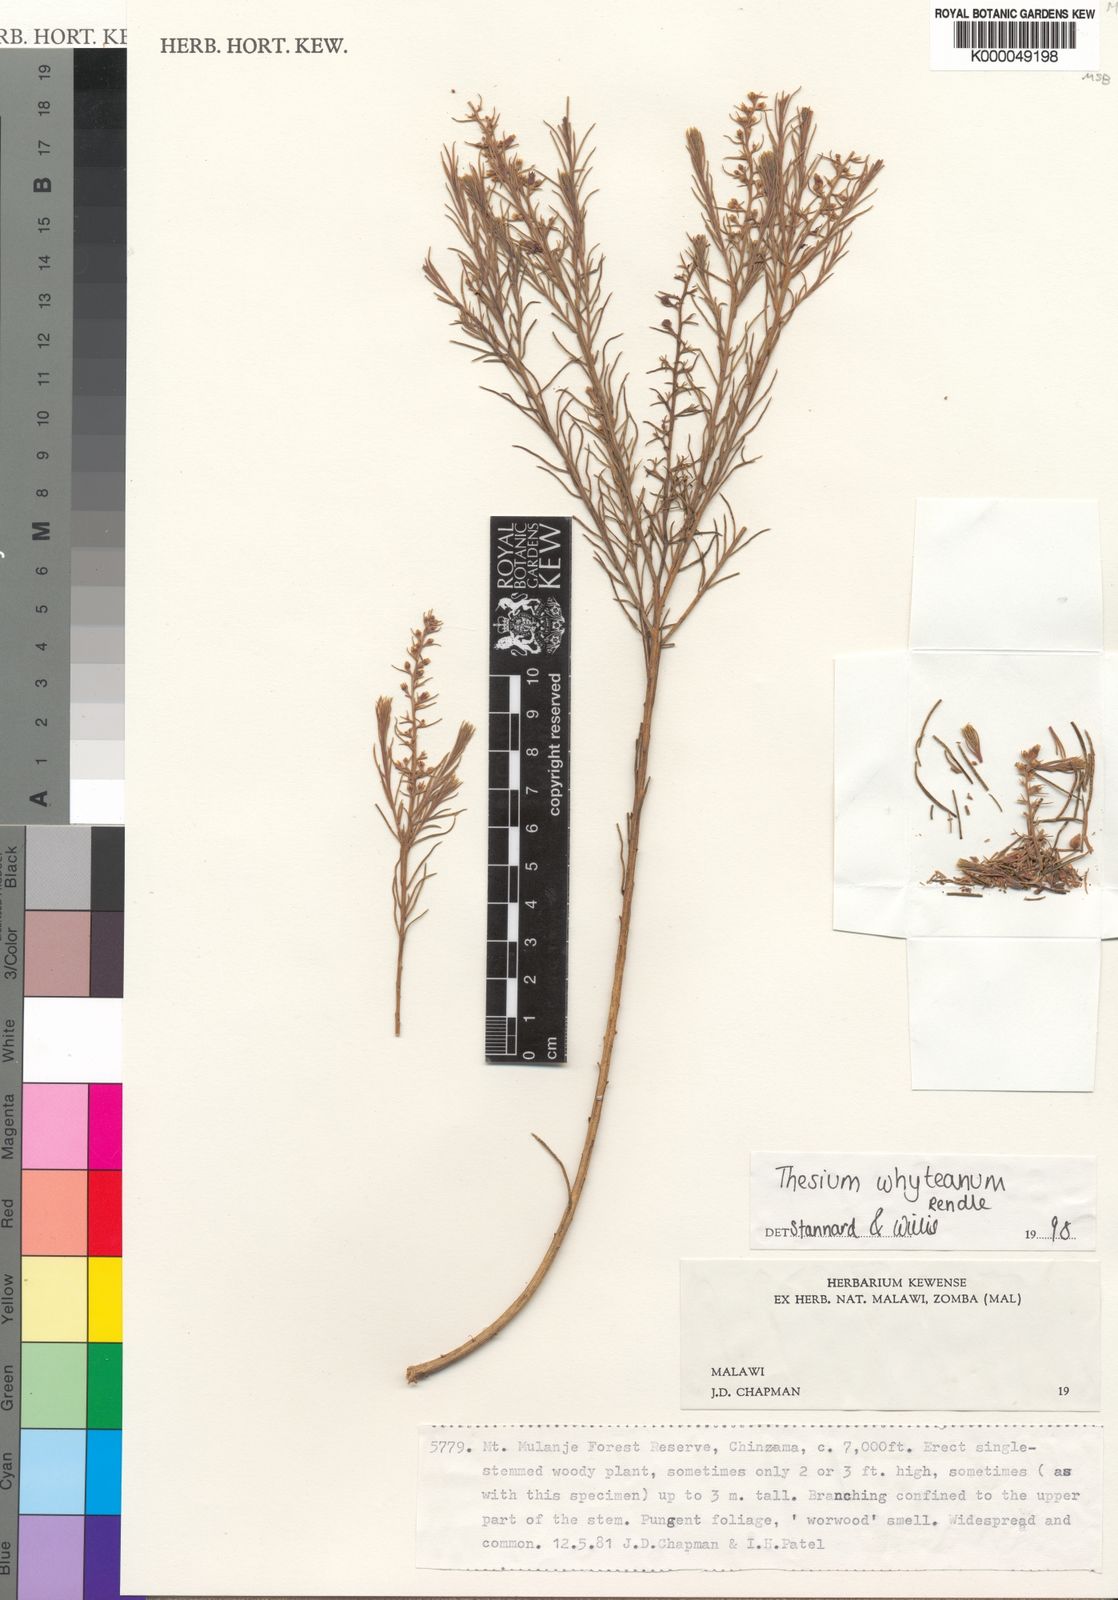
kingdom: Plantae
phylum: Tracheophyta
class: Magnoliopsida
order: Santalales
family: Thesiaceae
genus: Thesium
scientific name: Thesium whyteanum
